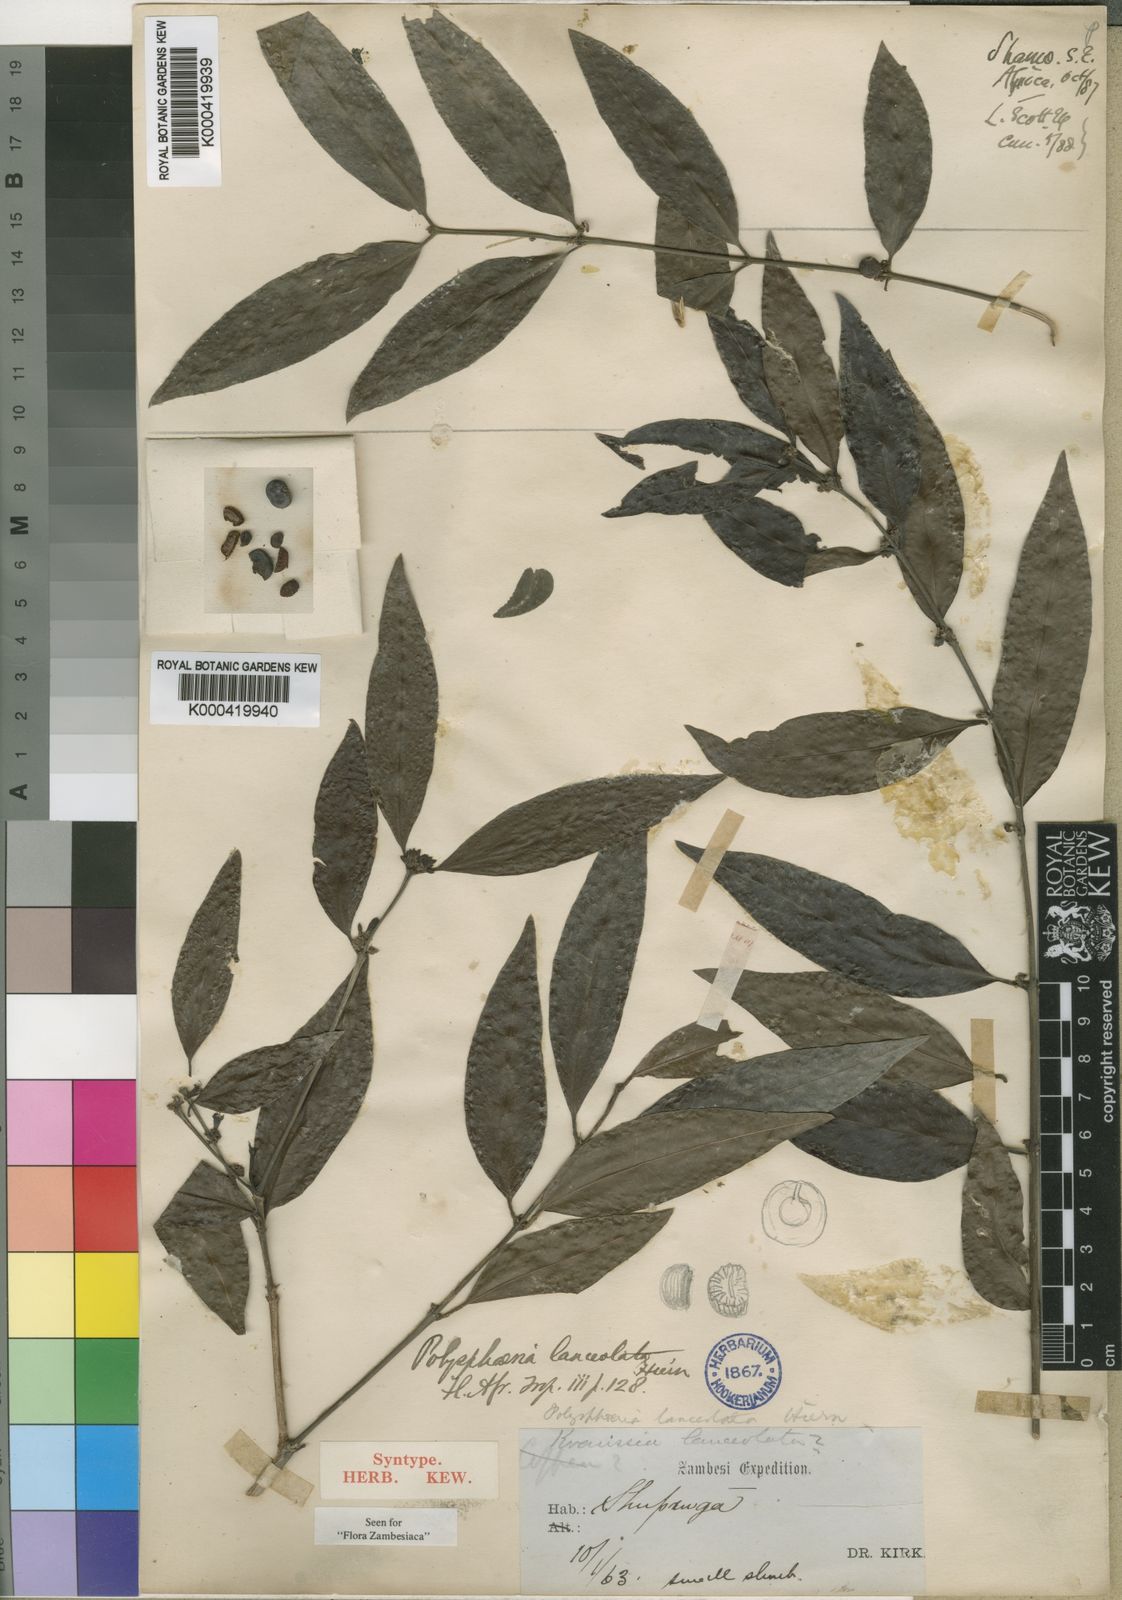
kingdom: Plantae
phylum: Tracheophyta
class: Magnoliopsida
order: Gentianales
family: Rubiaceae
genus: Polysphaeria
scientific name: Polysphaeria lanceolata
